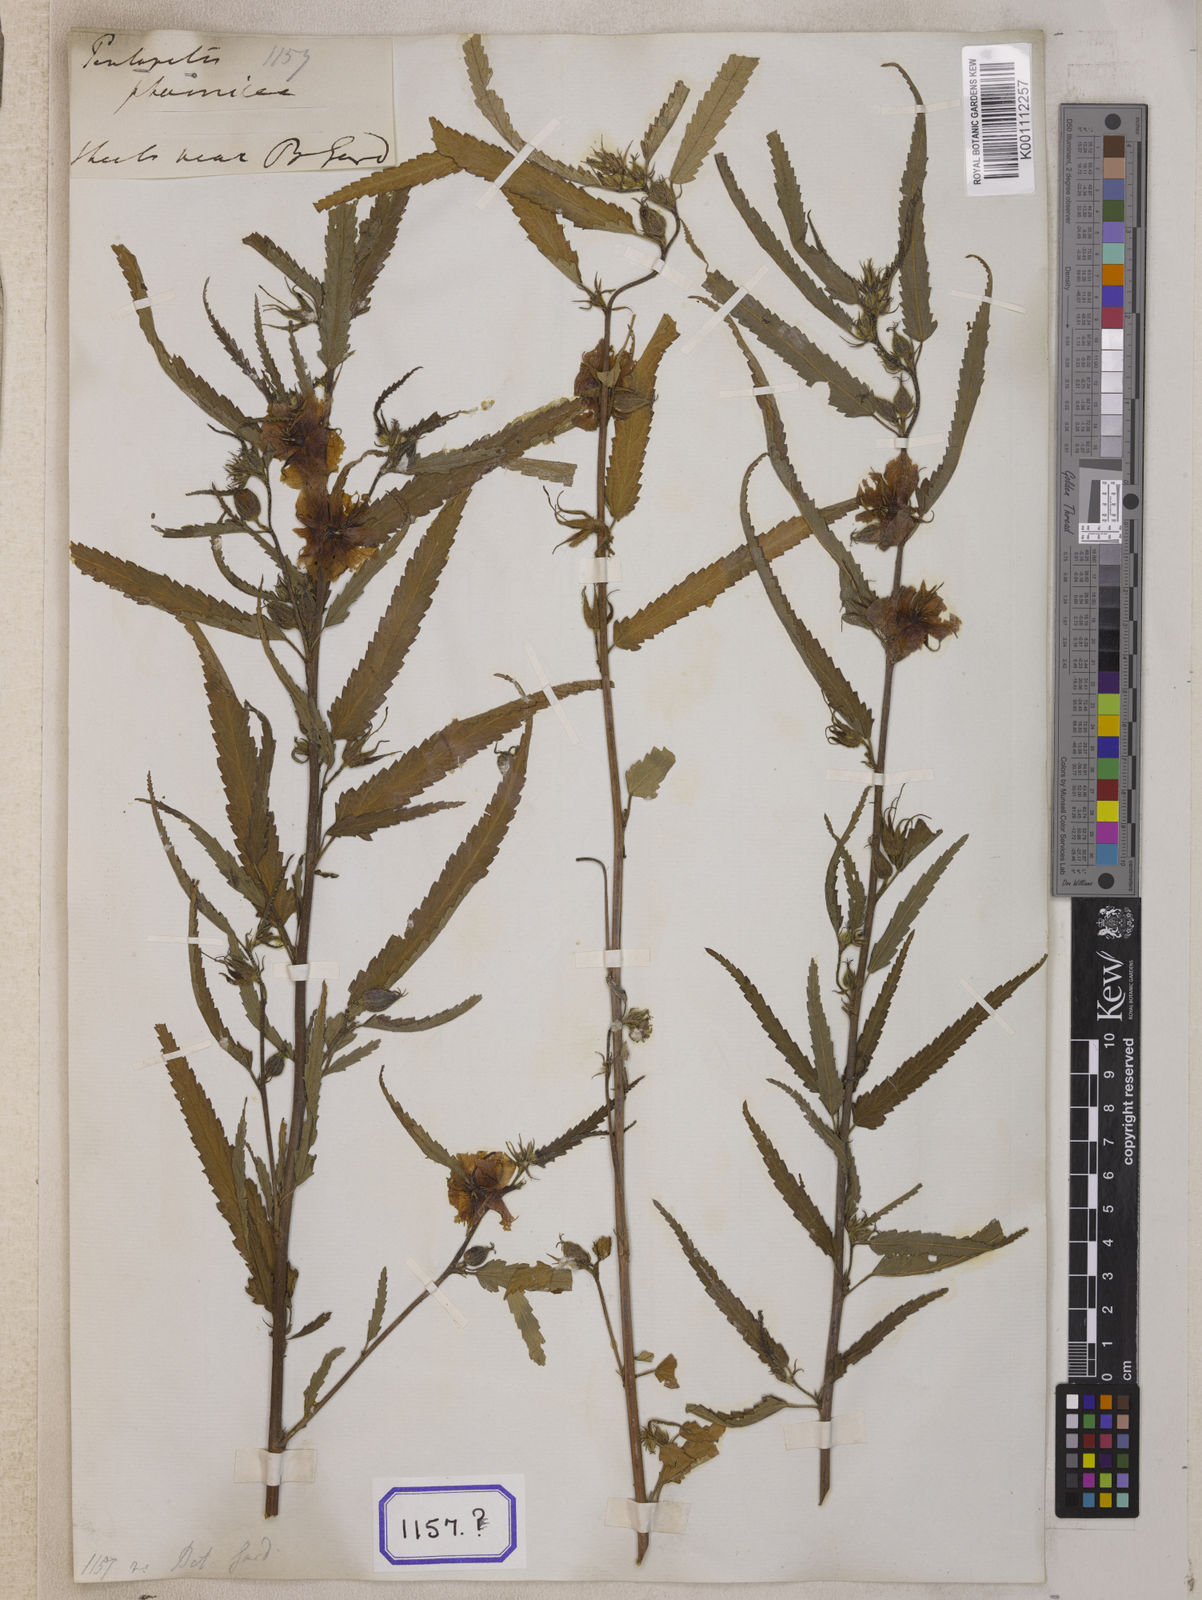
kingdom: Plantae
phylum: Tracheophyta
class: Magnoliopsida
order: Malvales
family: Malvaceae
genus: Pentapetes
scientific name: Pentapetes phoenicea
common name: Copper-cups
